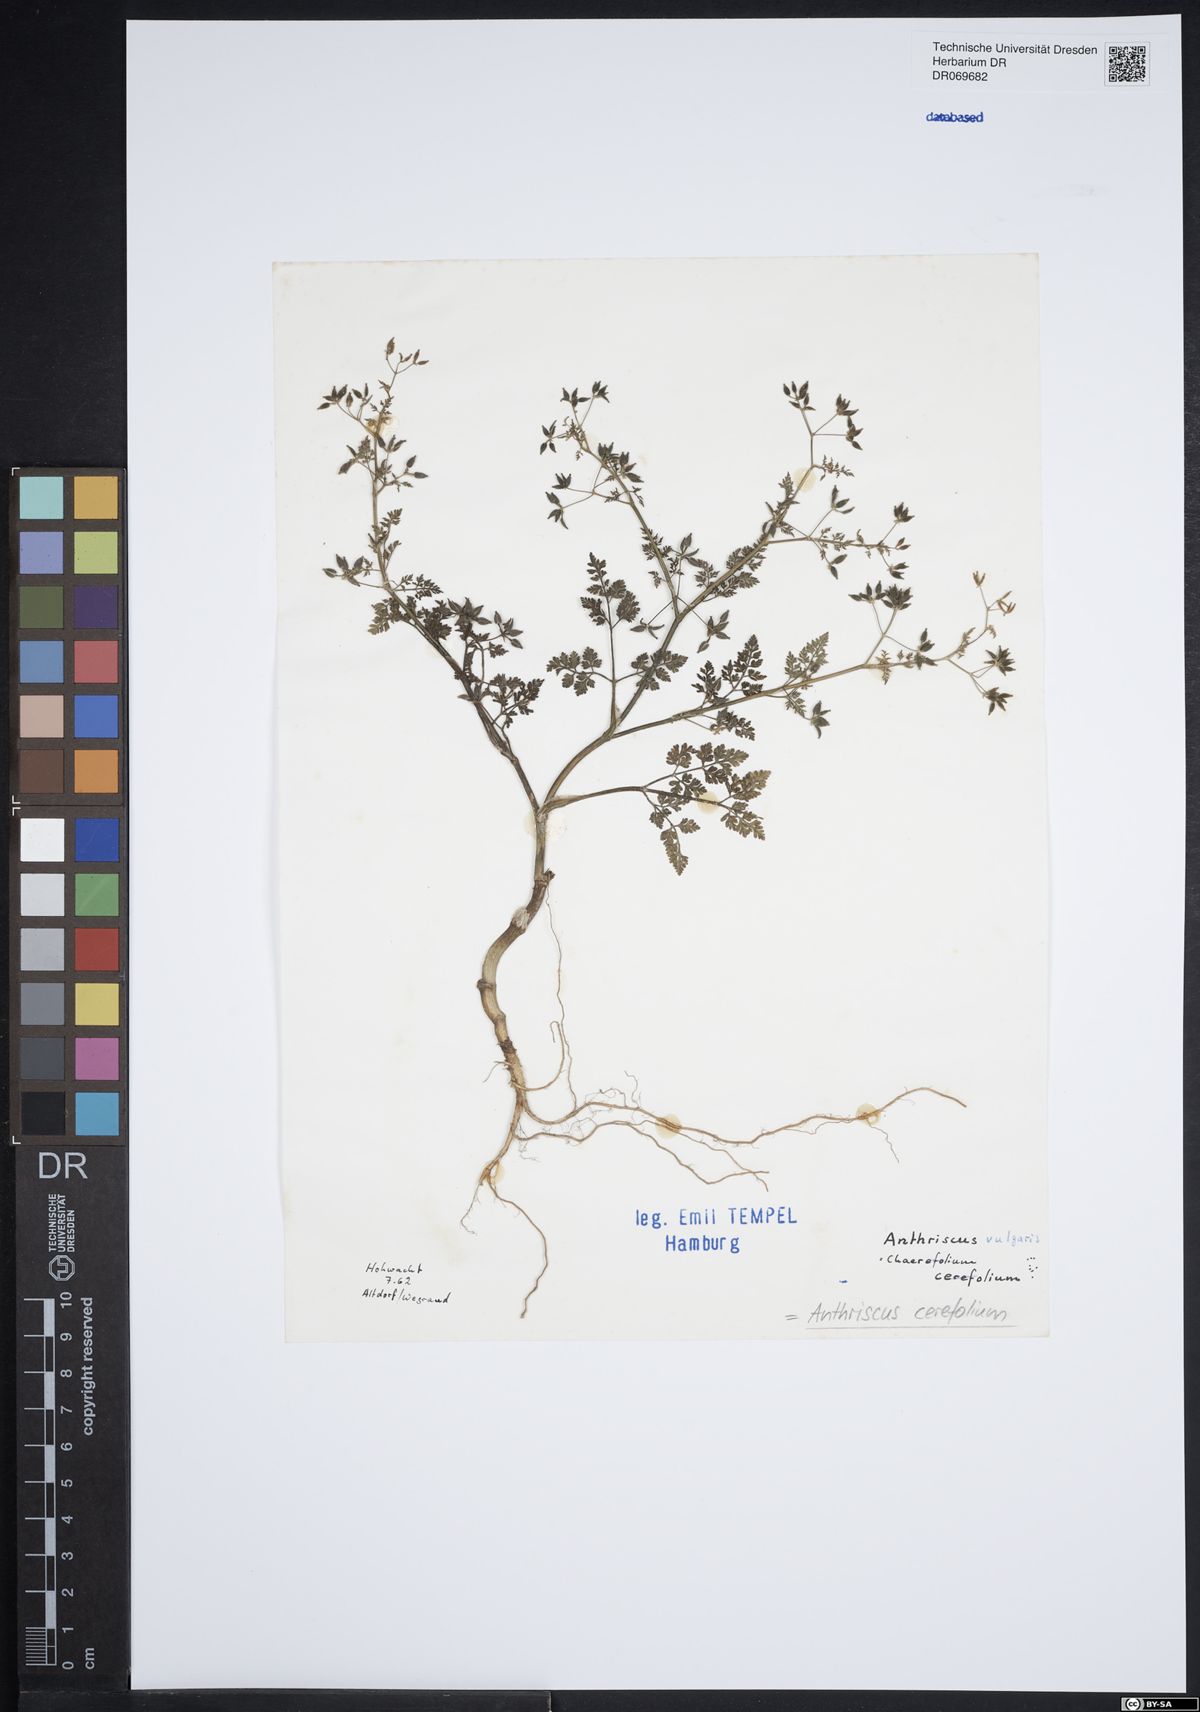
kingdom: Plantae
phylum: Tracheophyta
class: Magnoliopsida
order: Apiales
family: Apiaceae
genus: Anthriscus
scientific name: Anthriscus cerefolium
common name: Garden chervil
